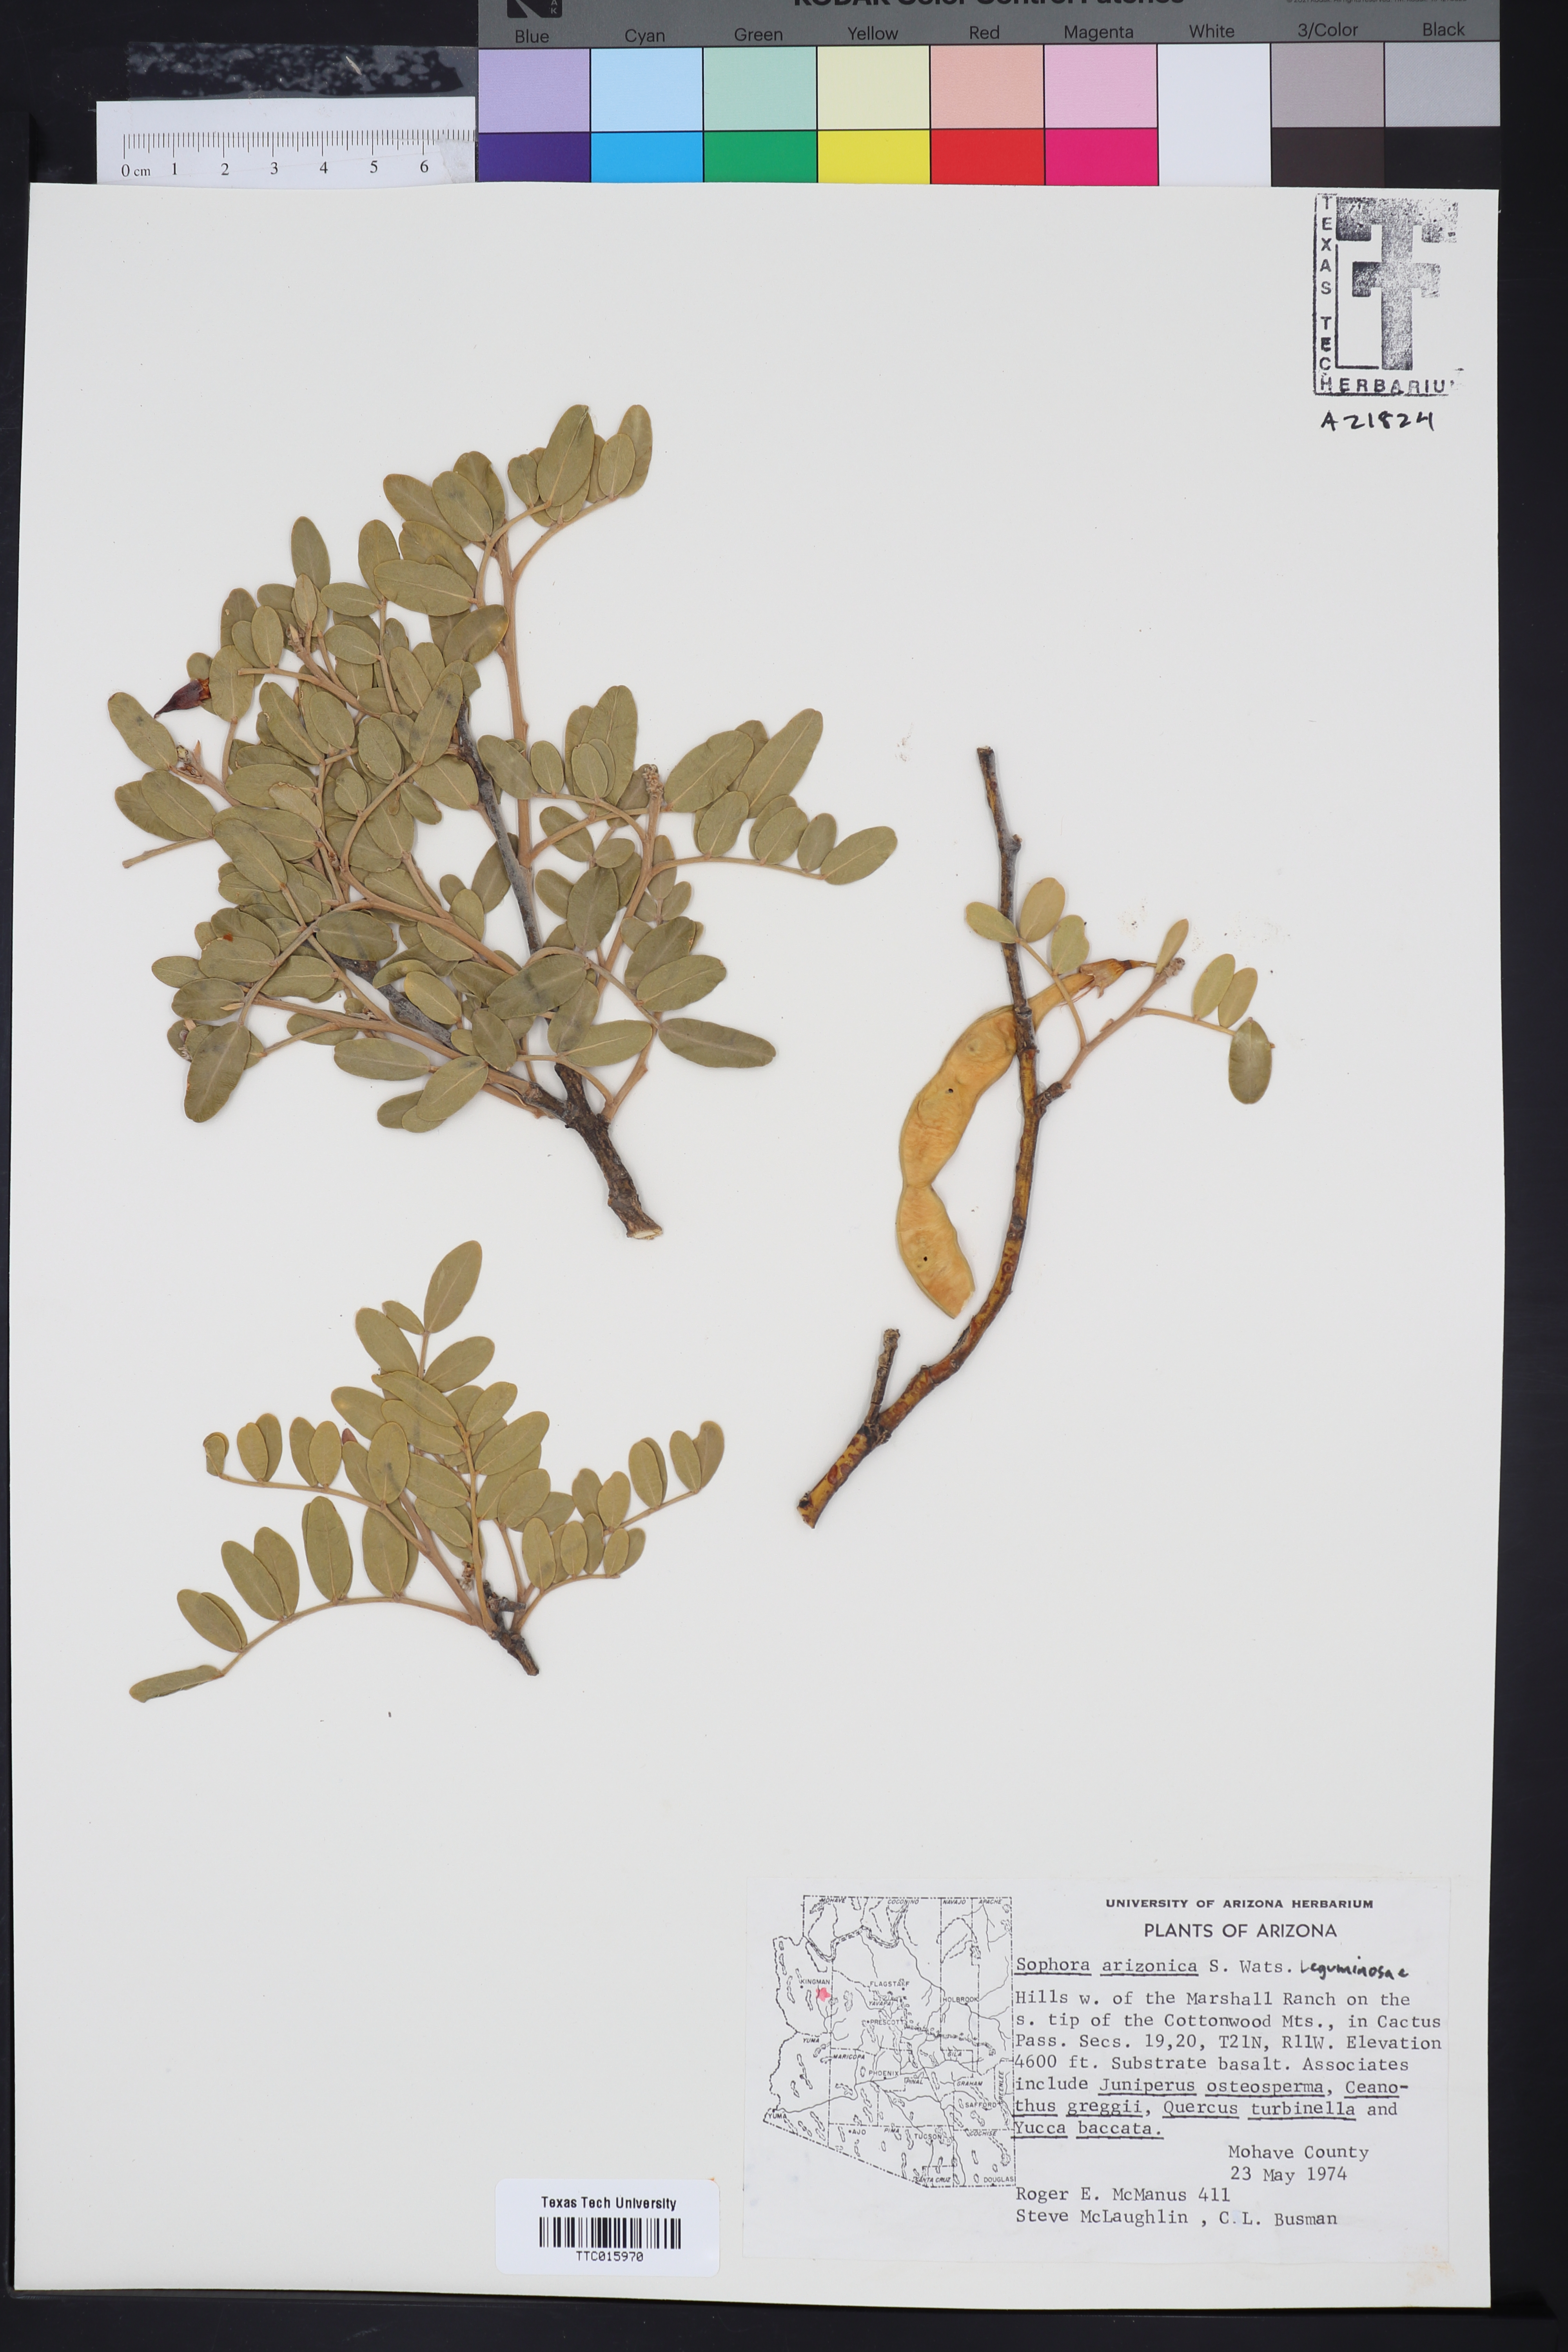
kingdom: Plantae
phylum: Tracheophyta
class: Magnoliopsida
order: Fabales
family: Fabaceae
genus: Dermatophyllum
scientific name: Dermatophyllum arizonicum
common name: Arizona necklace
